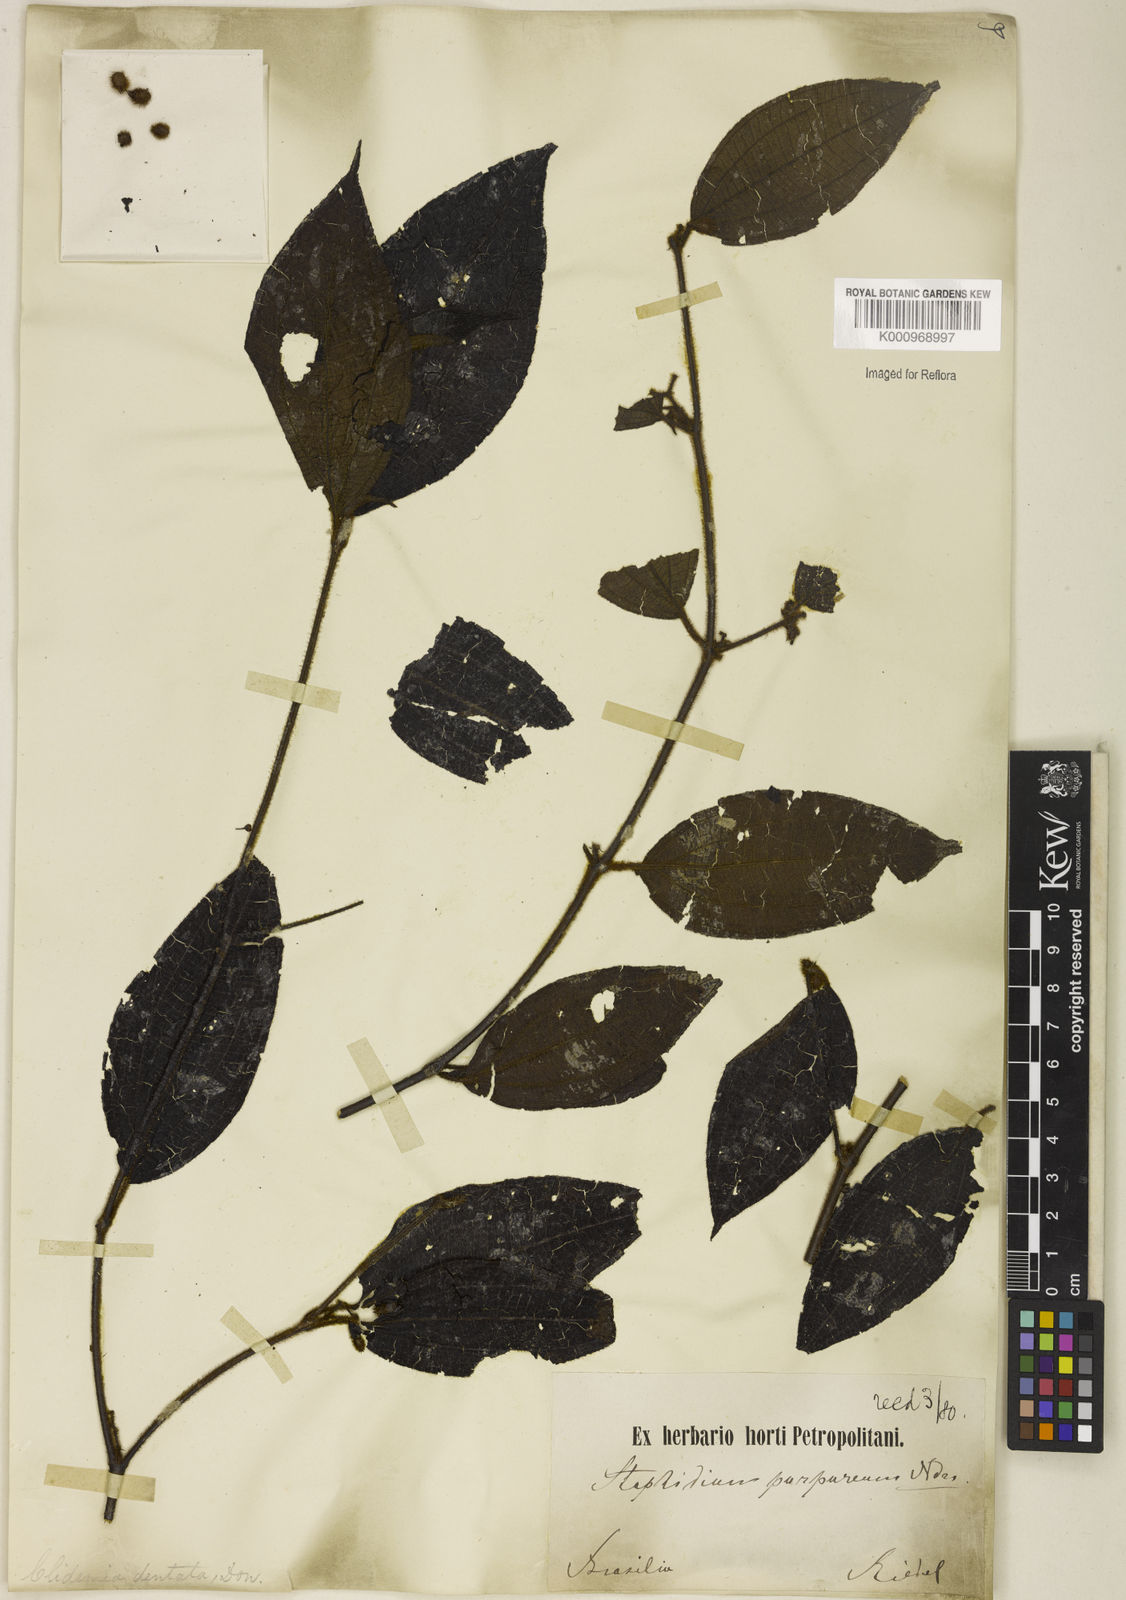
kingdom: Plantae
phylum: Tracheophyta
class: Magnoliopsida
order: Myrtales
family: Melastomataceae
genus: Miconia
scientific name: Miconia dentata
